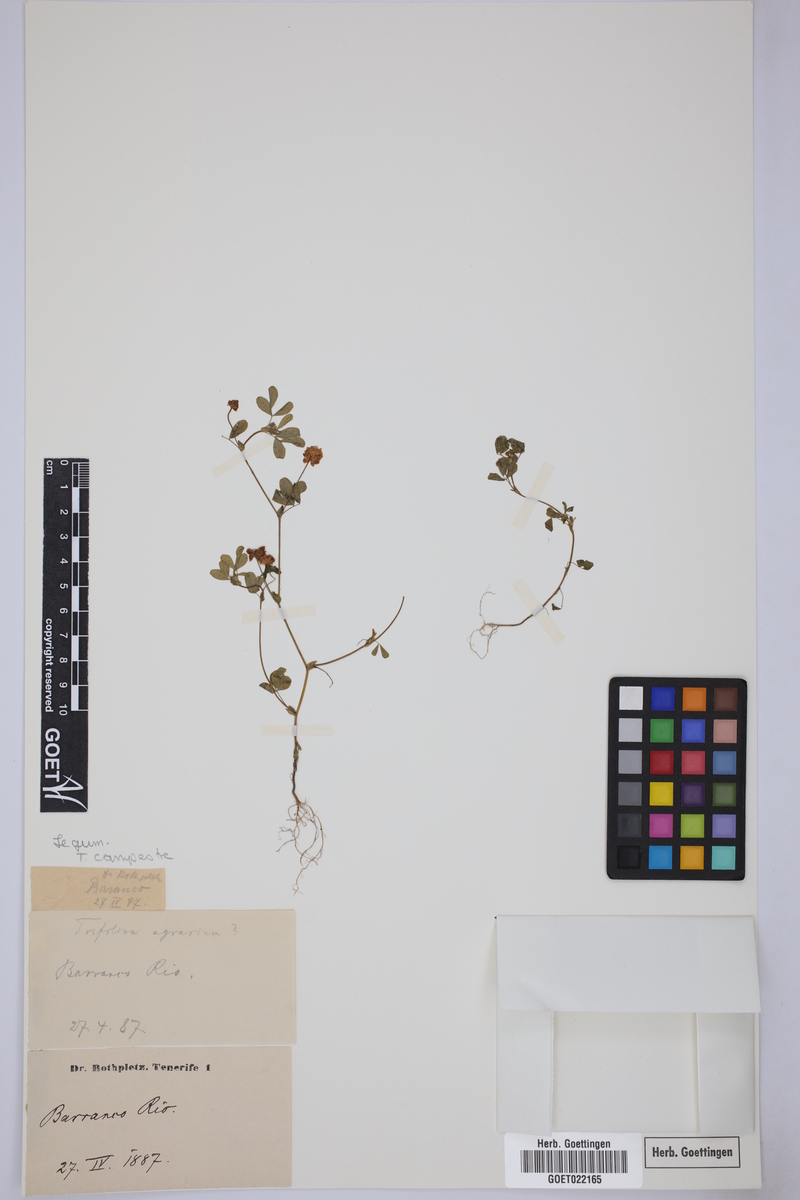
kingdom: Plantae
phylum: Tracheophyta
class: Magnoliopsida
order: Fabales
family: Fabaceae
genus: Trifolium
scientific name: Trifolium campestre
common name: Field clover
